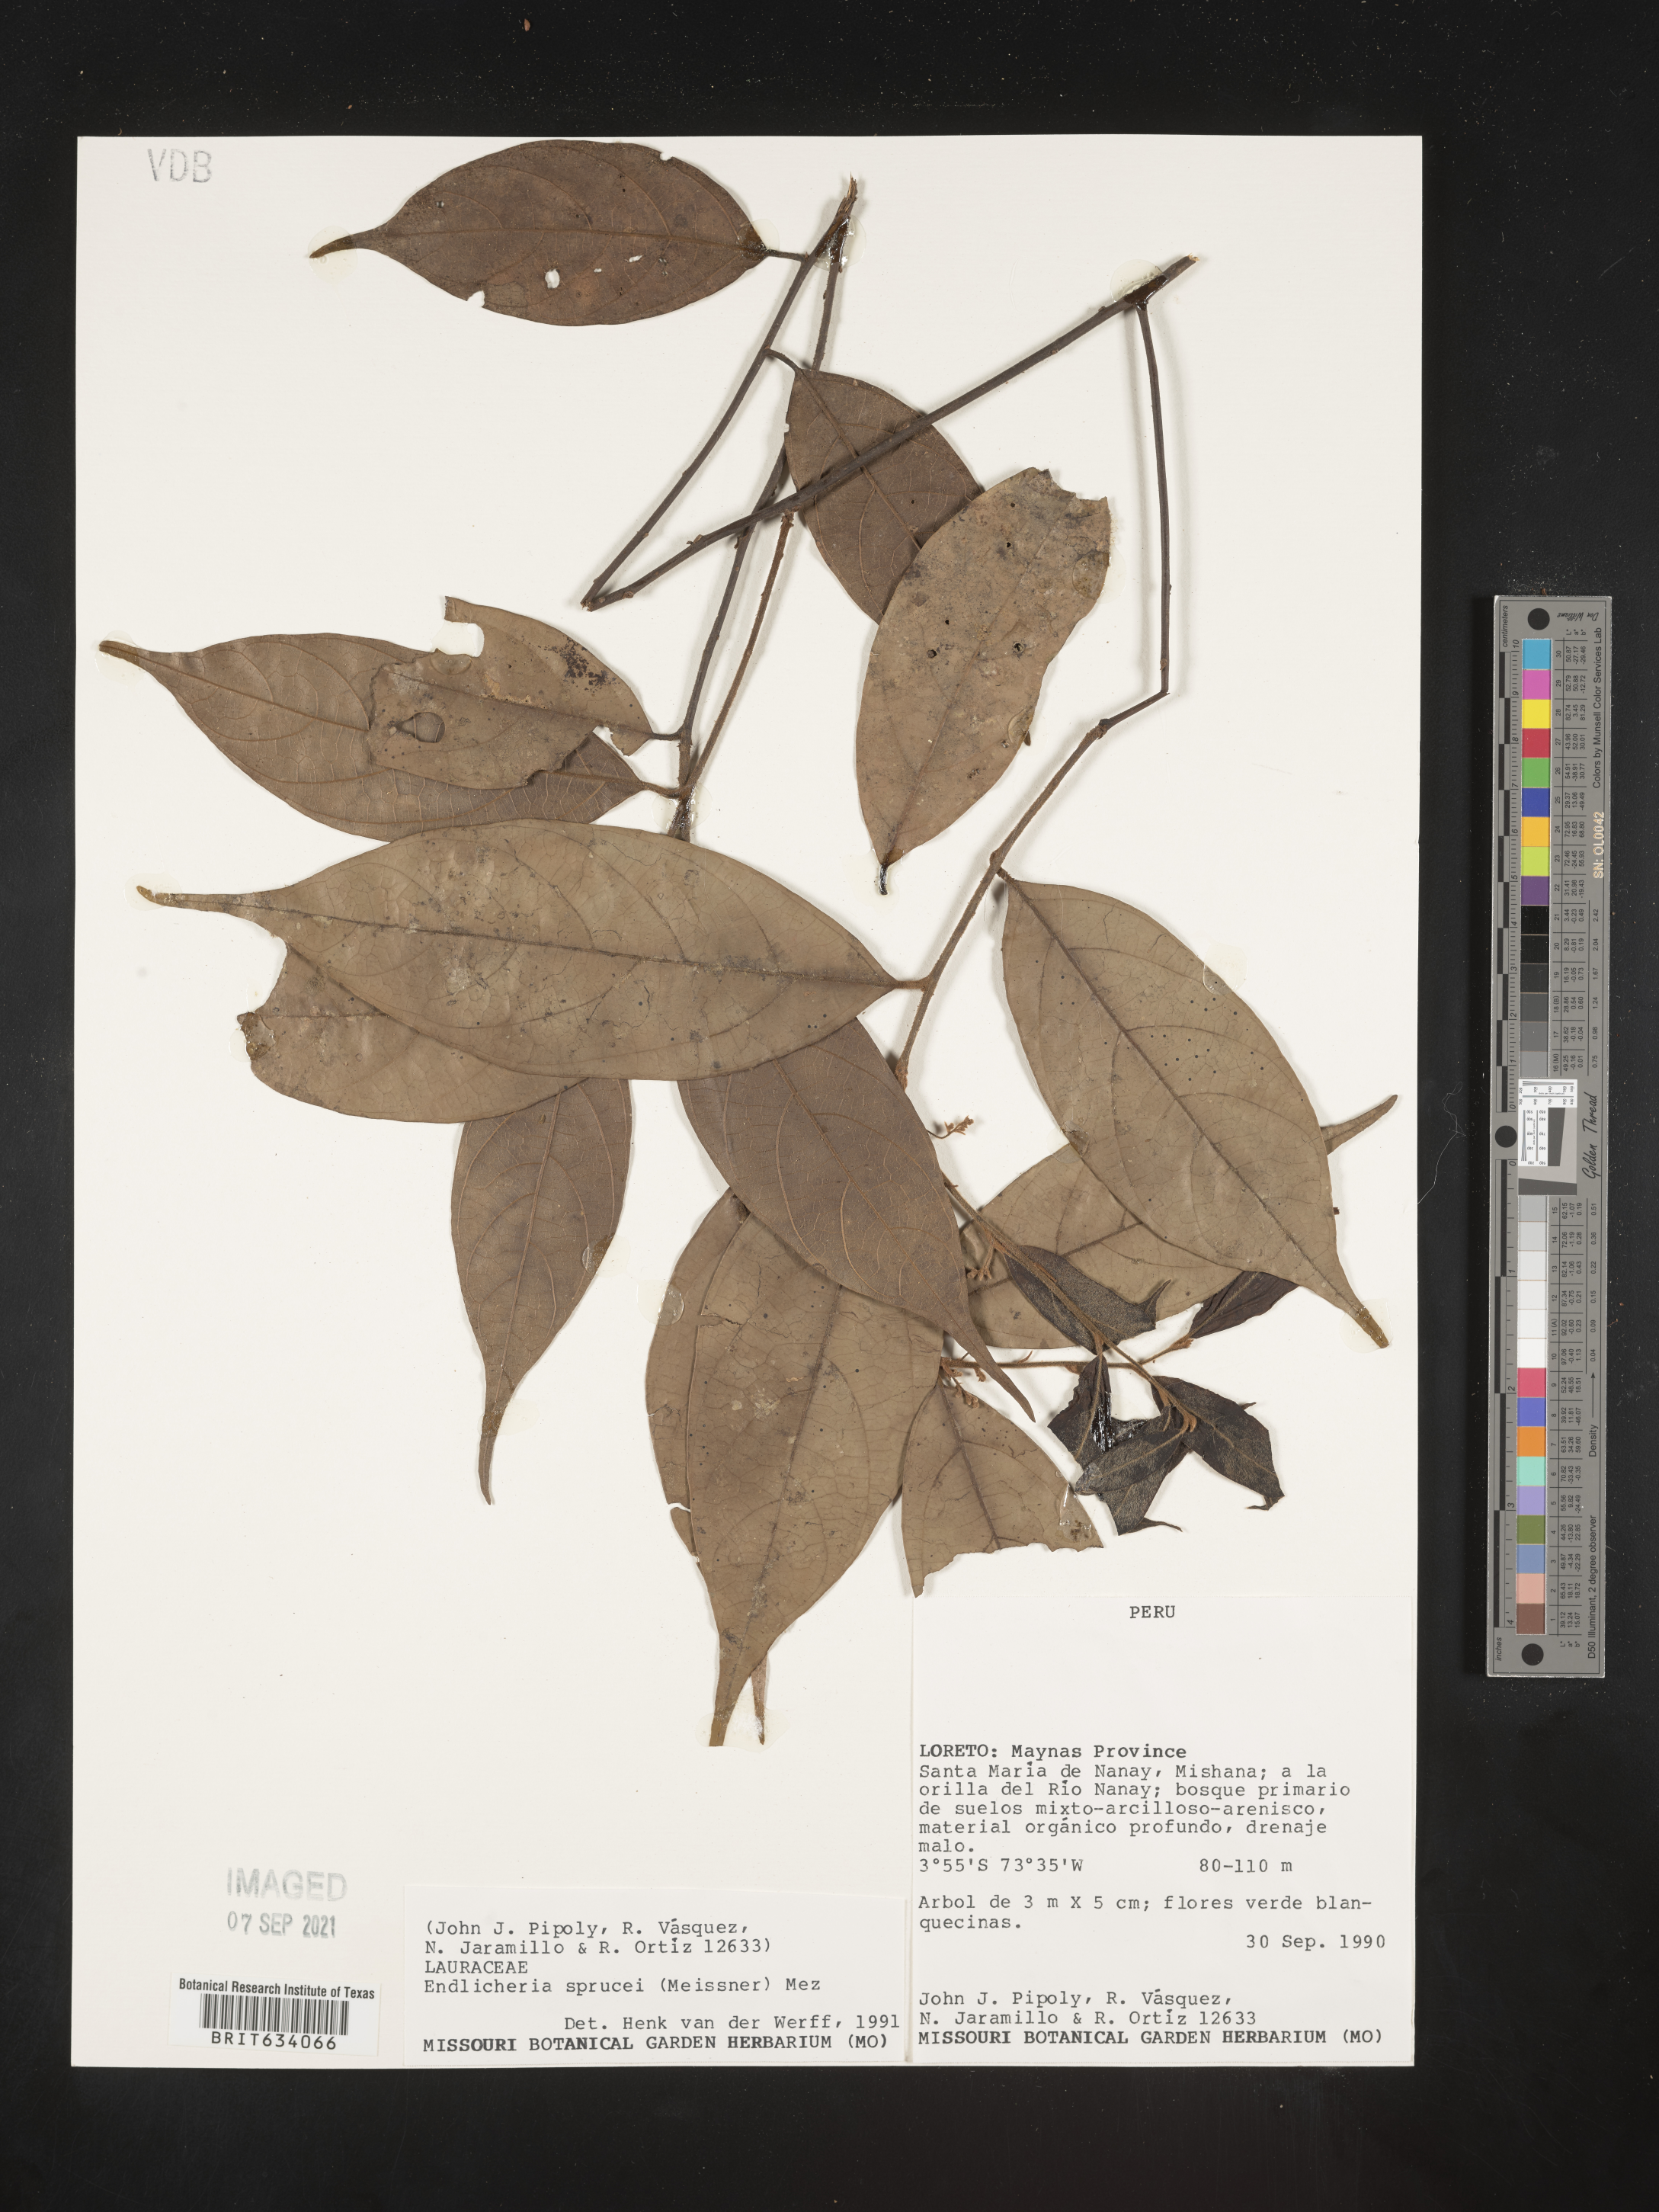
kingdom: Plantae
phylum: Tracheophyta
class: Magnoliopsida
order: Laurales
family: Lauraceae
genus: Endlicheria
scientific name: Endlicheria
